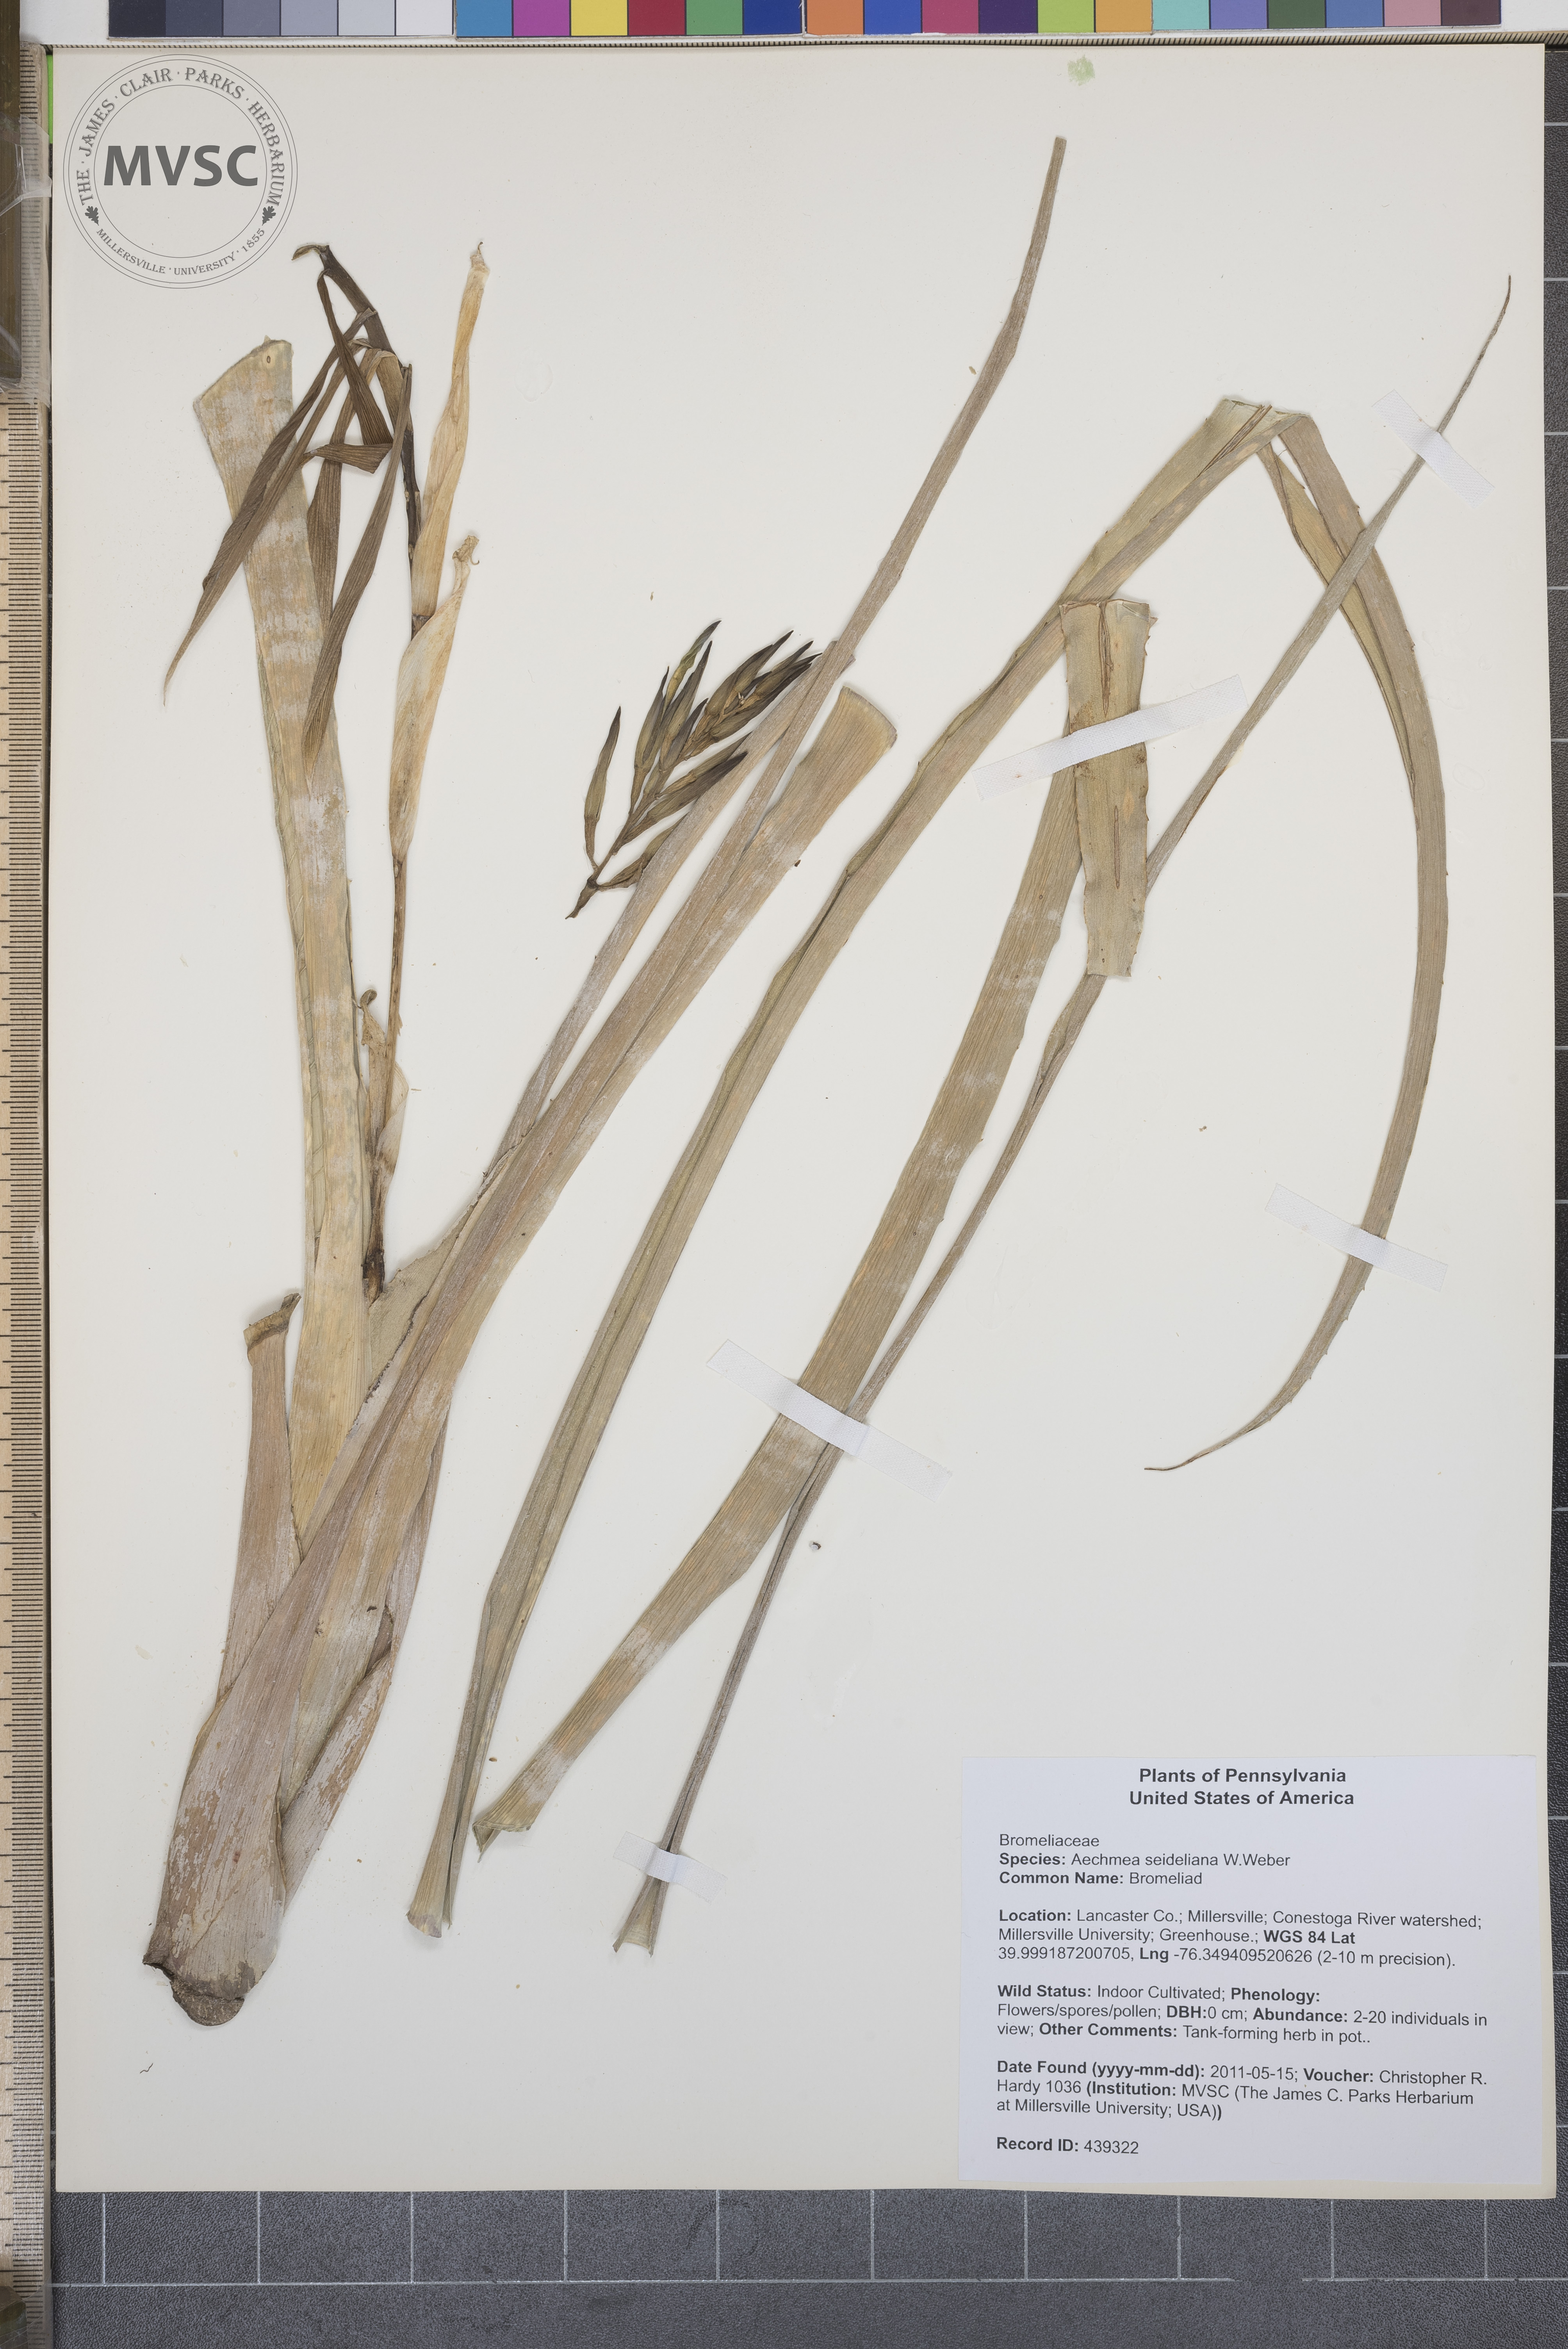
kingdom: Plantae
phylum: Tracheophyta
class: Liliopsida
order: Poales
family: Bromeliaceae
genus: Aechmea
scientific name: Aechmea seideliana
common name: Bromeliad
